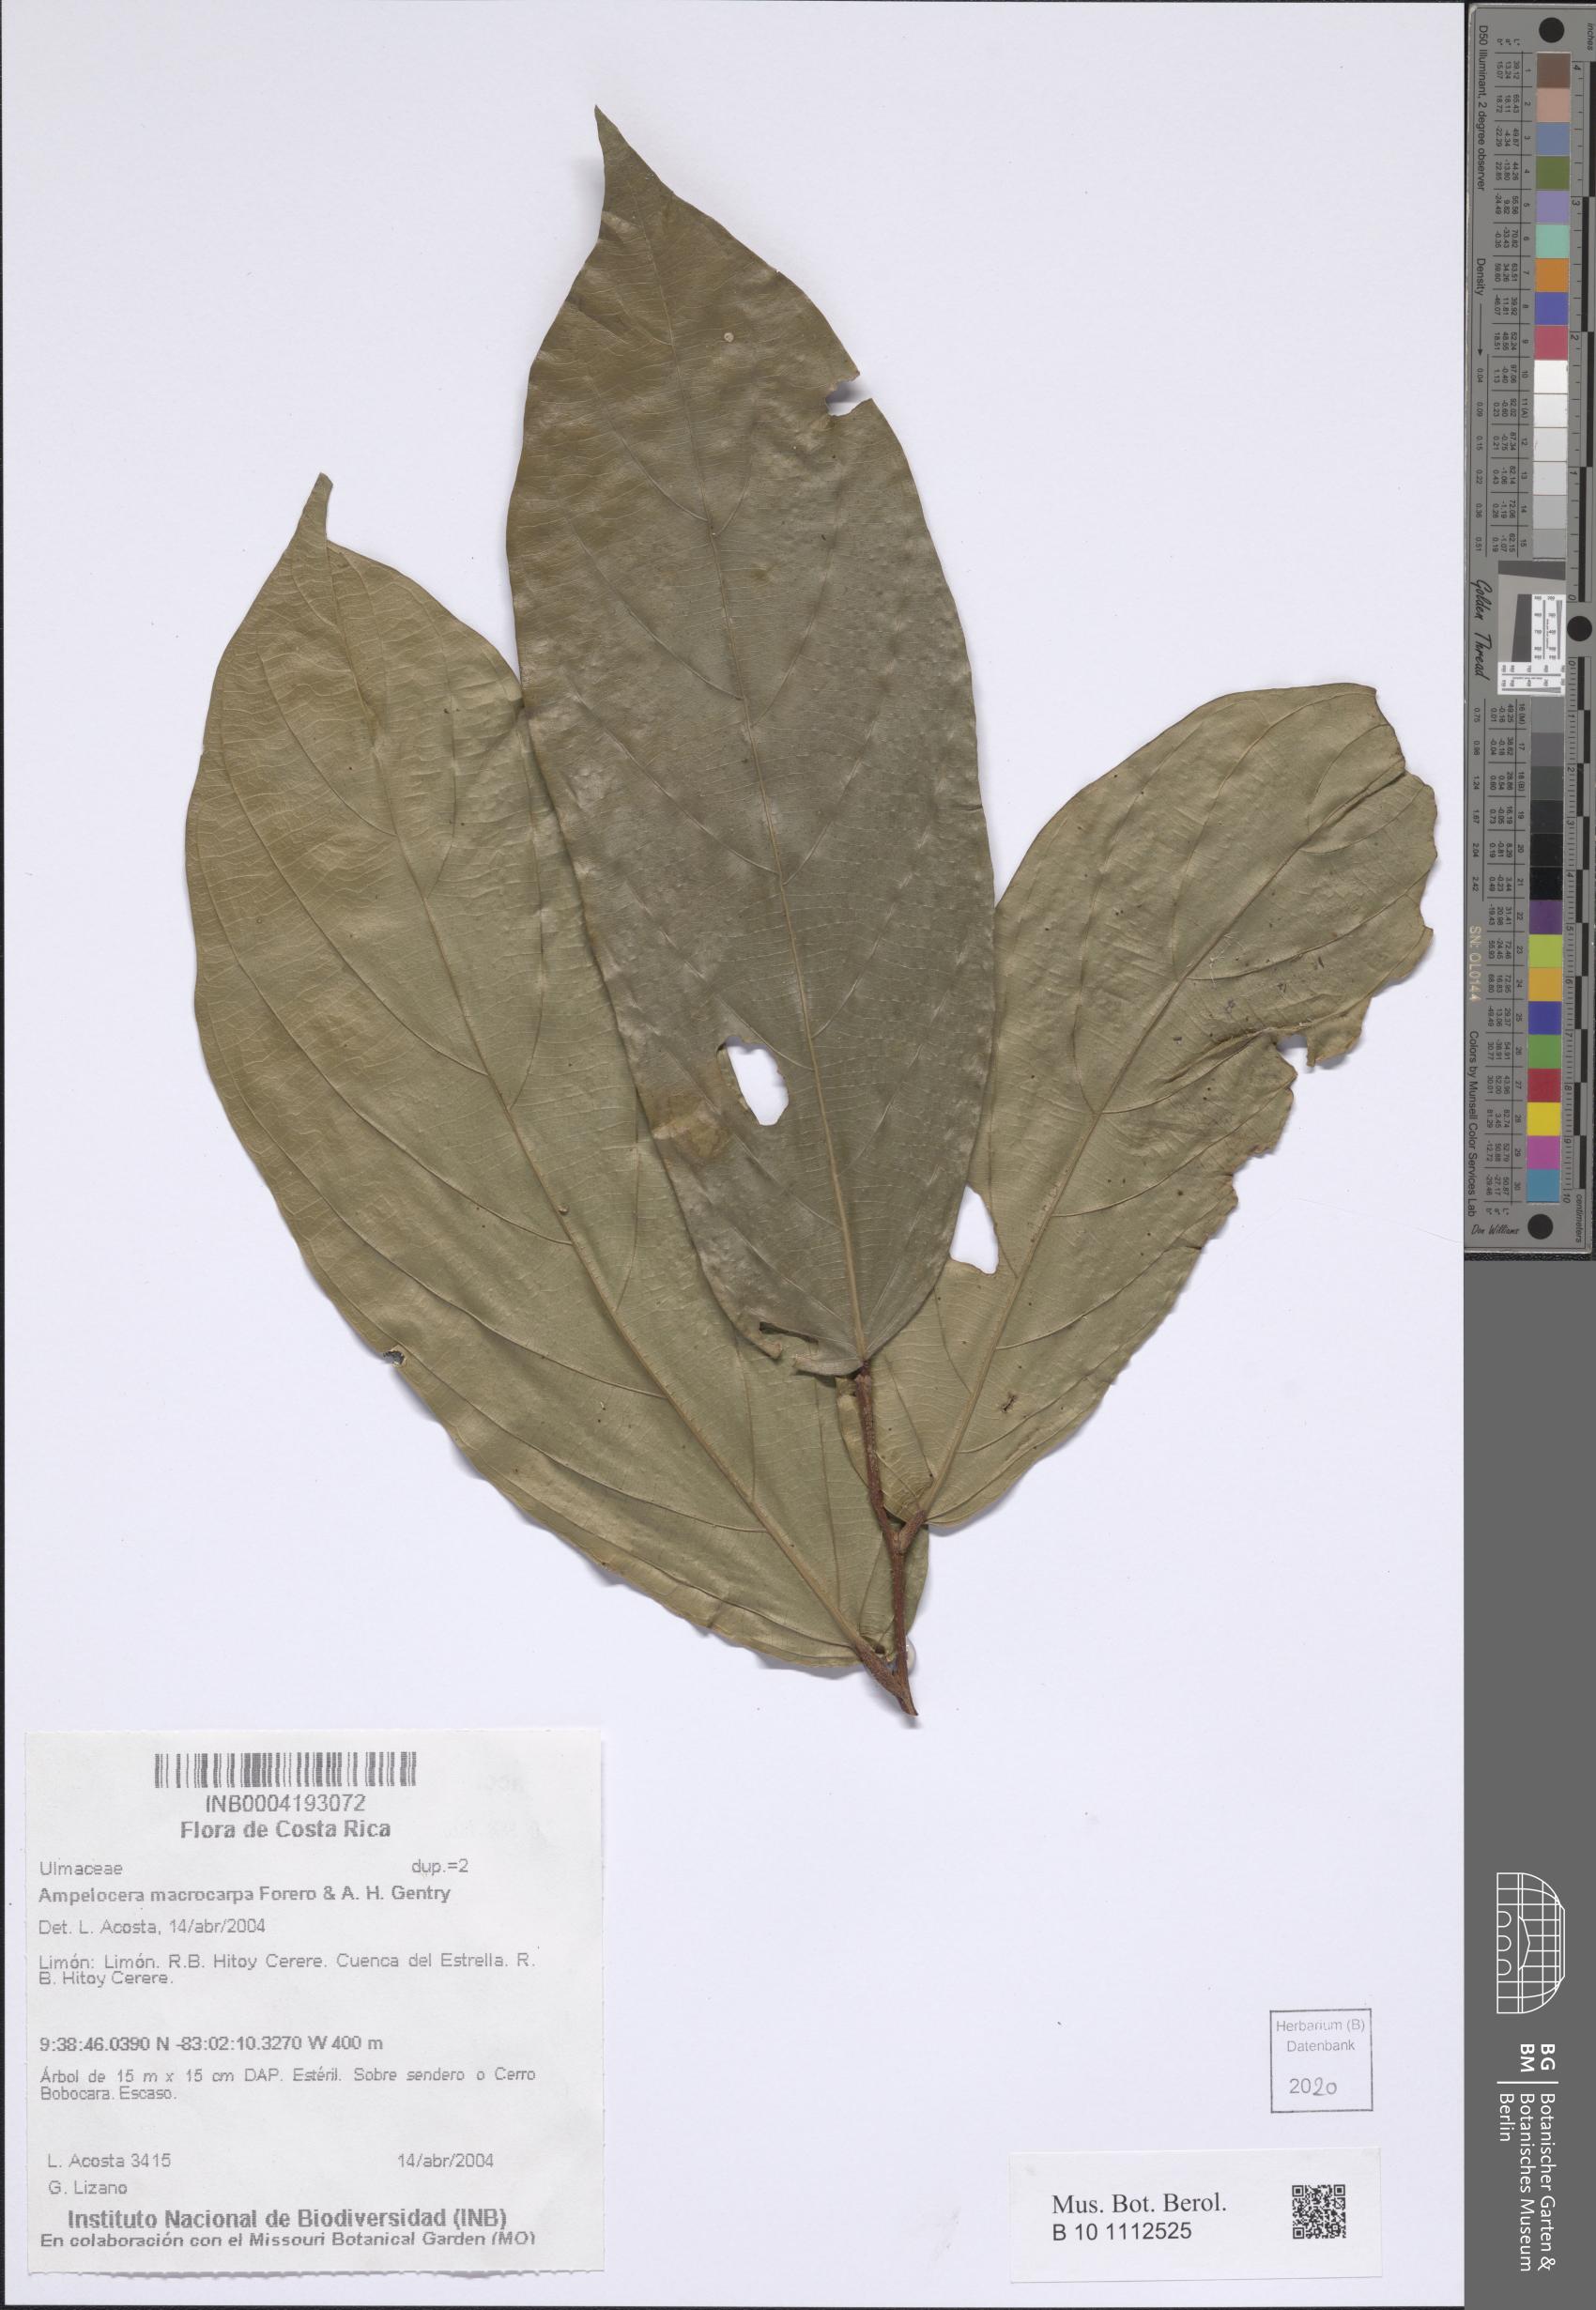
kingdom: Plantae
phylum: Tracheophyta
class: Magnoliopsida
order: Rosales
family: Cannabaceae
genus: Ampelocera
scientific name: Ampelocera macrocarpa
